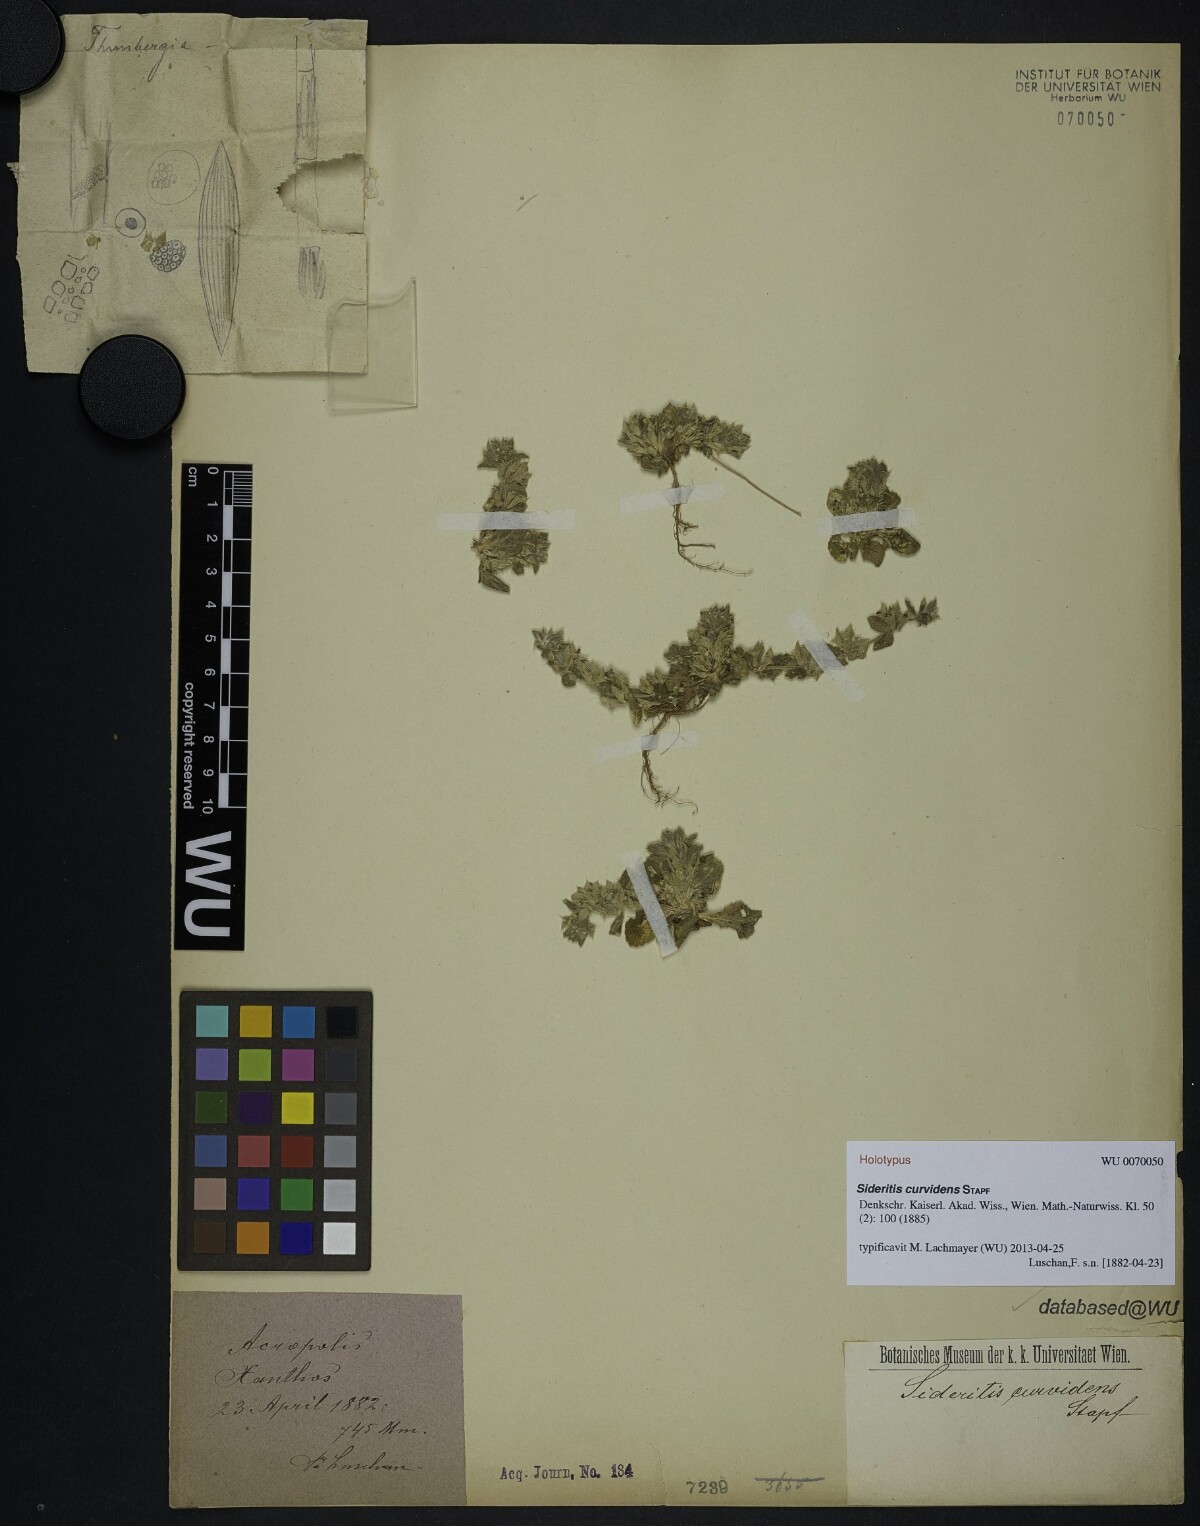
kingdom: Plantae
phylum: Tracheophyta
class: Magnoliopsida
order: Lamiales
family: Lamiaceae
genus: Sideritis
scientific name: Sideritis romana
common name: Simplebeak ironwort
